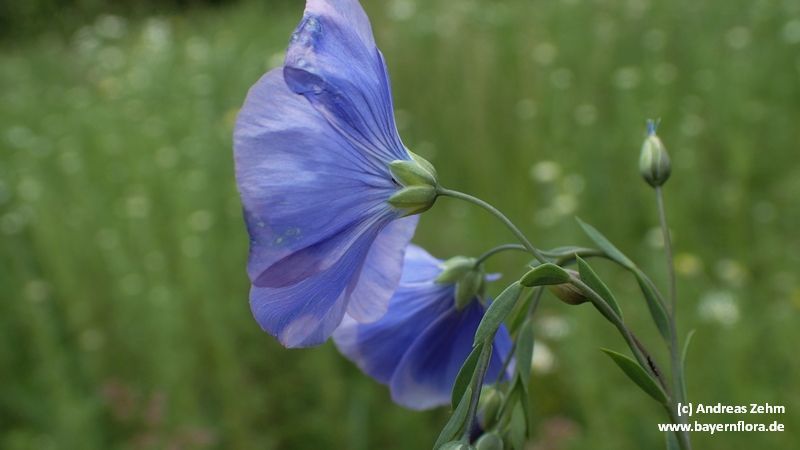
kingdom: Plantae
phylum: Tracheophyta
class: Magnoliopsida
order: Malpighiales
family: Linaceae
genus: Linum
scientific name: Linum usitatissimum
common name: Flax
